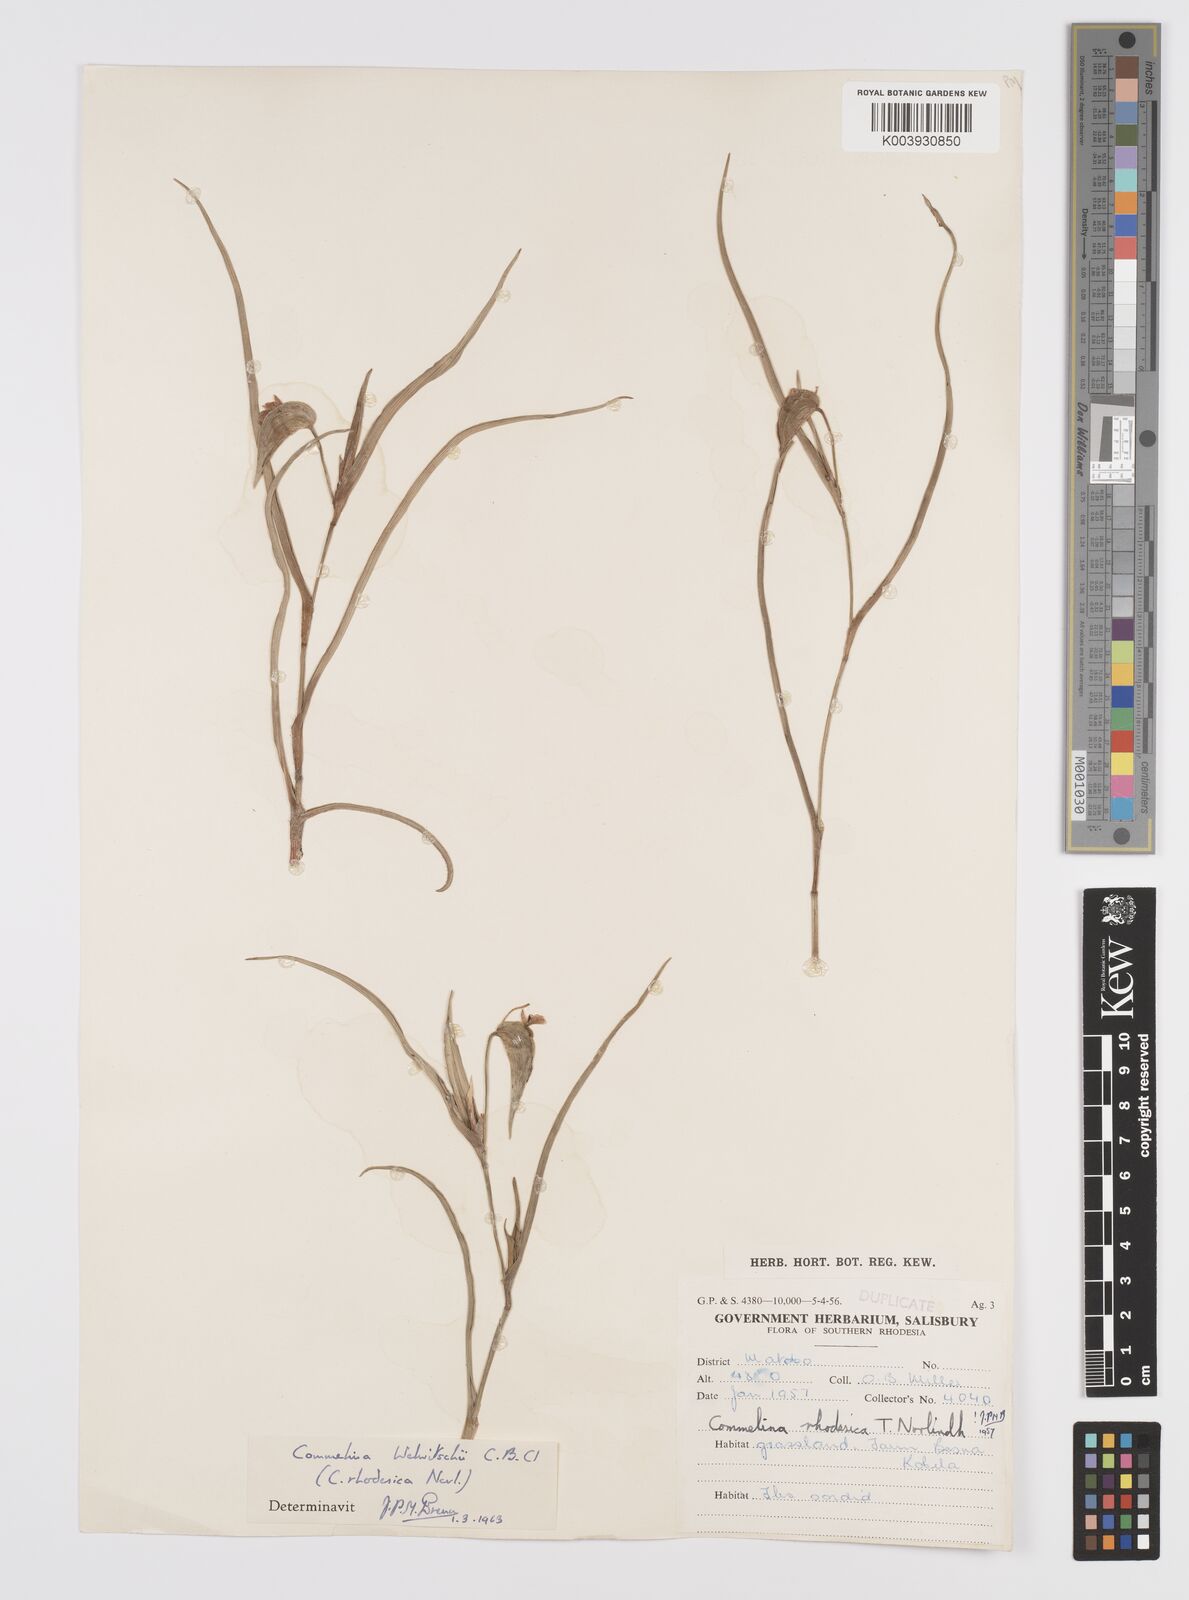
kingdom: Plantae
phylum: Tracheophyta
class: Liliopsida
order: Commelinales
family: Commelinaceae
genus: Commelina
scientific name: Commelina welwitschii
